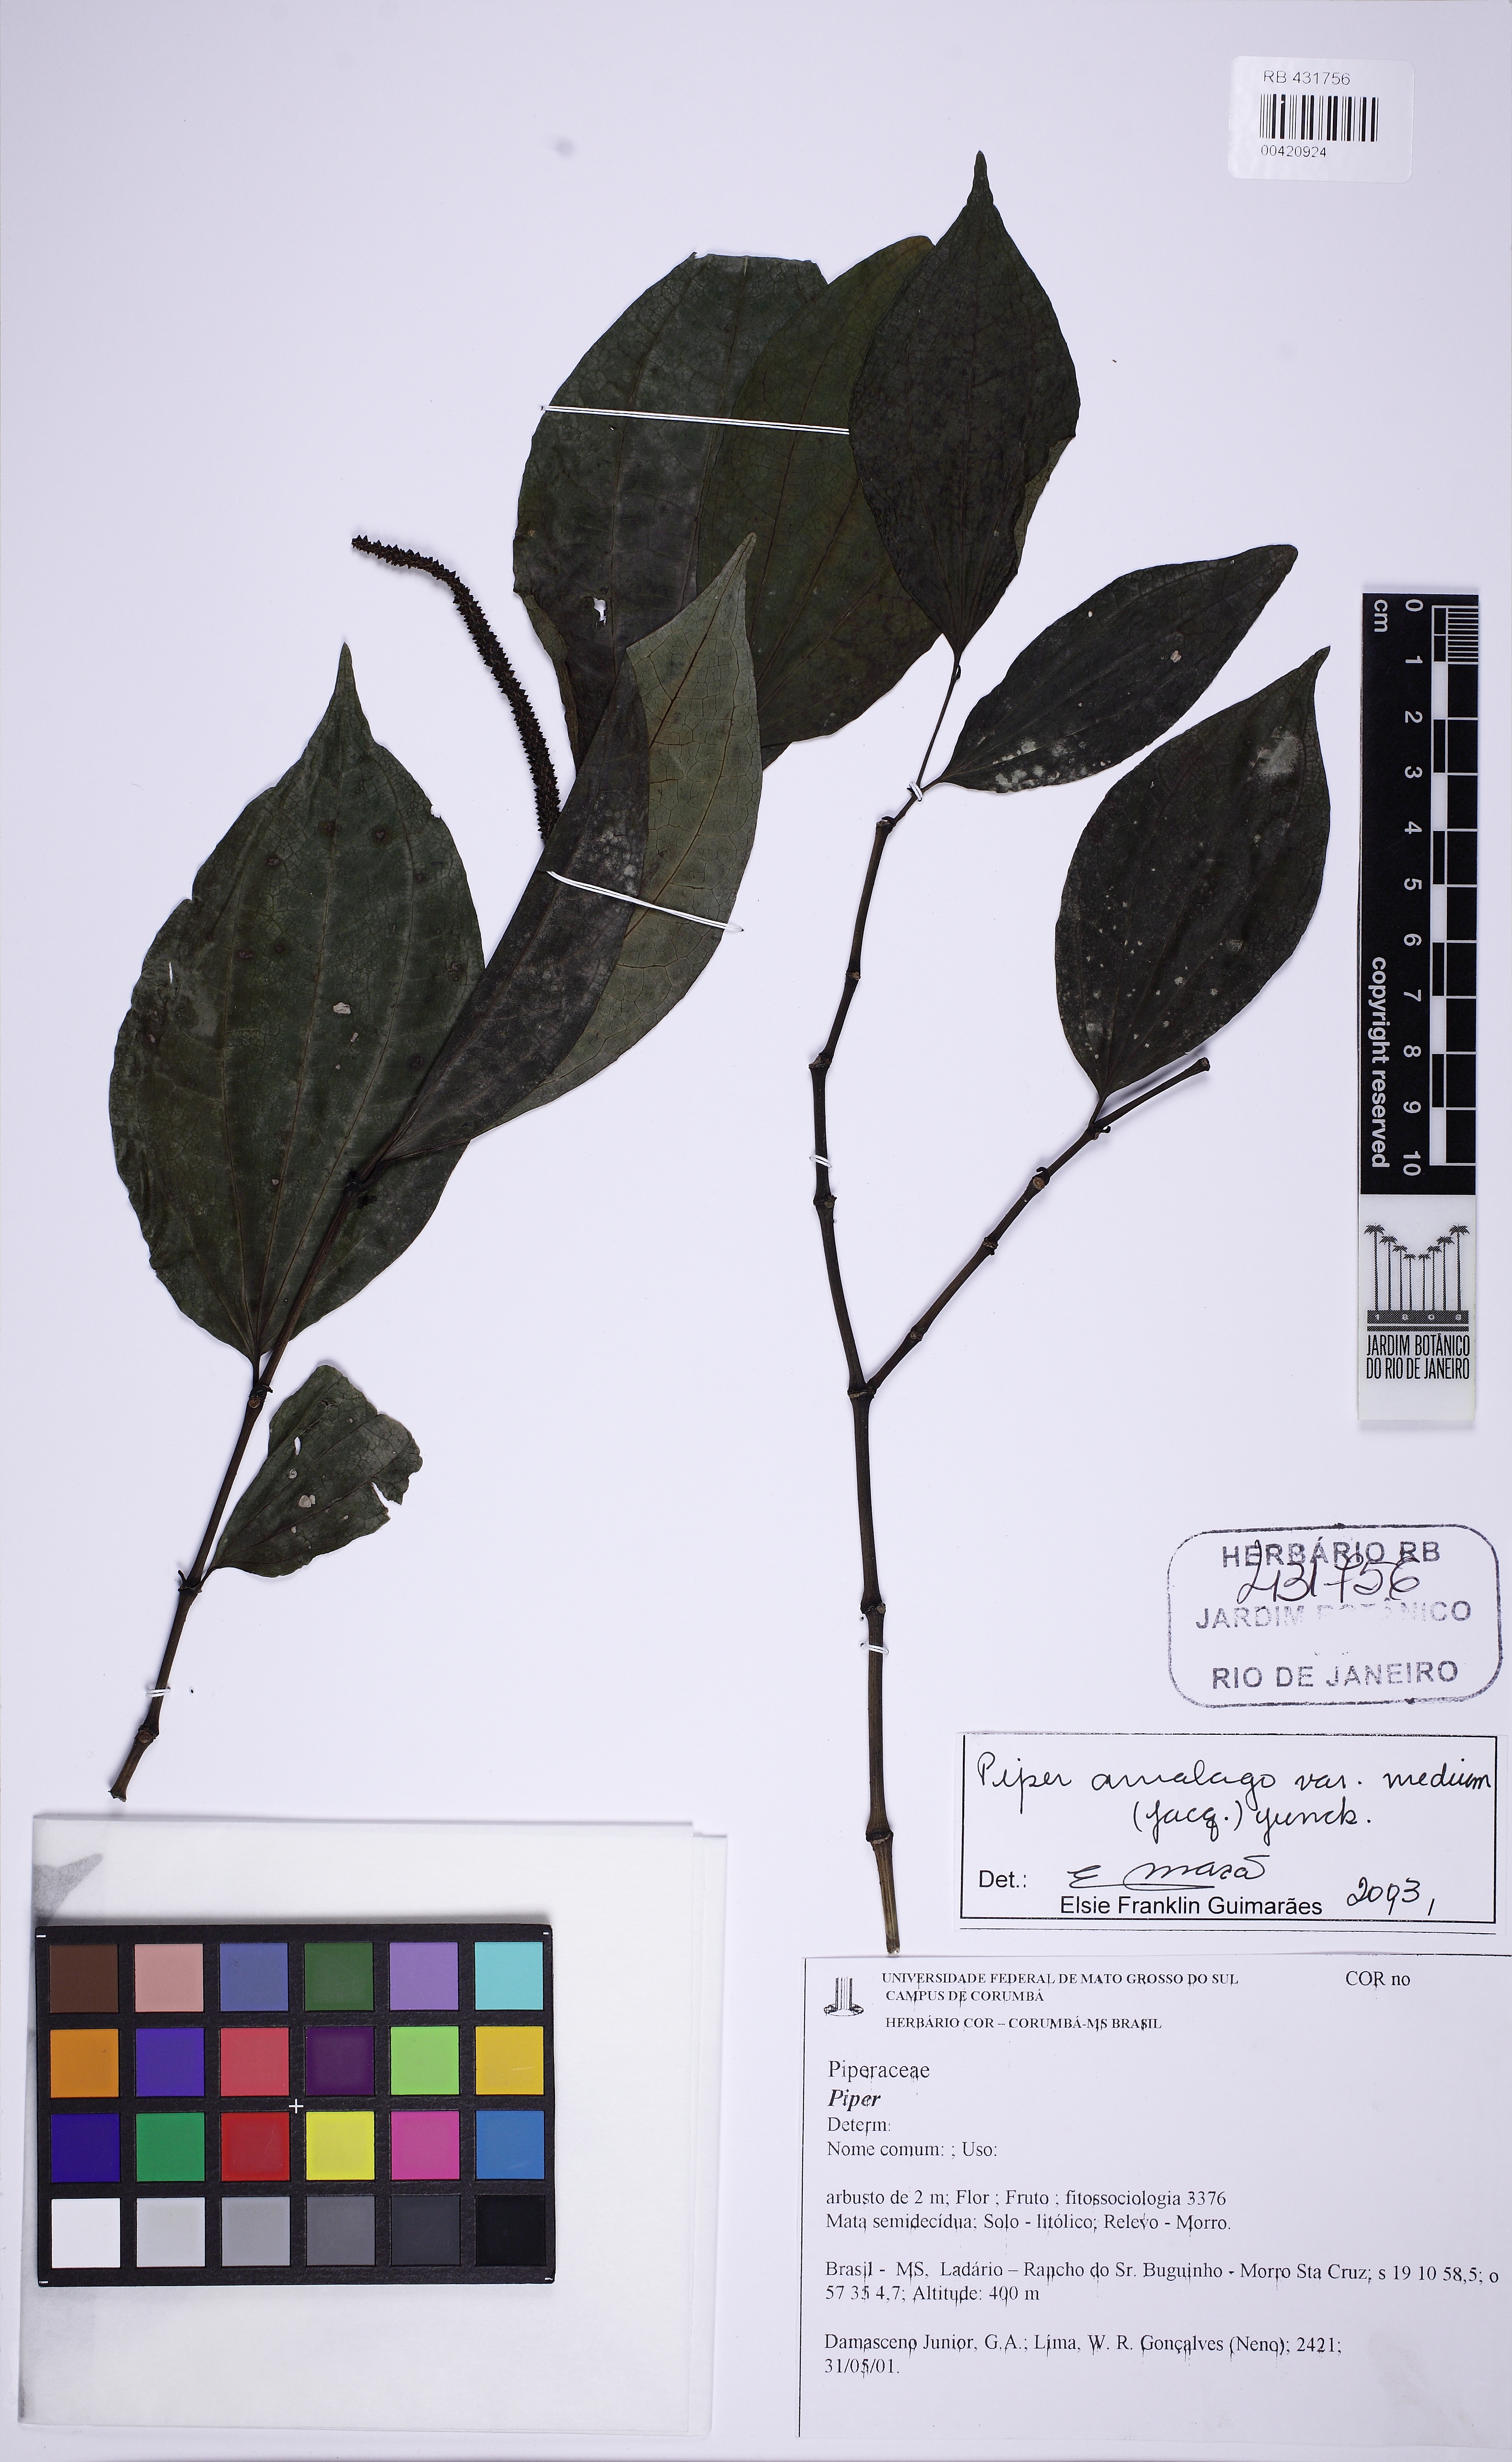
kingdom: Plantae
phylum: Tracheophyta
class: Magnoliopsida
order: Piperales
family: Piperaceae
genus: Piper
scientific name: Piper amalago
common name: Pepper-elder
